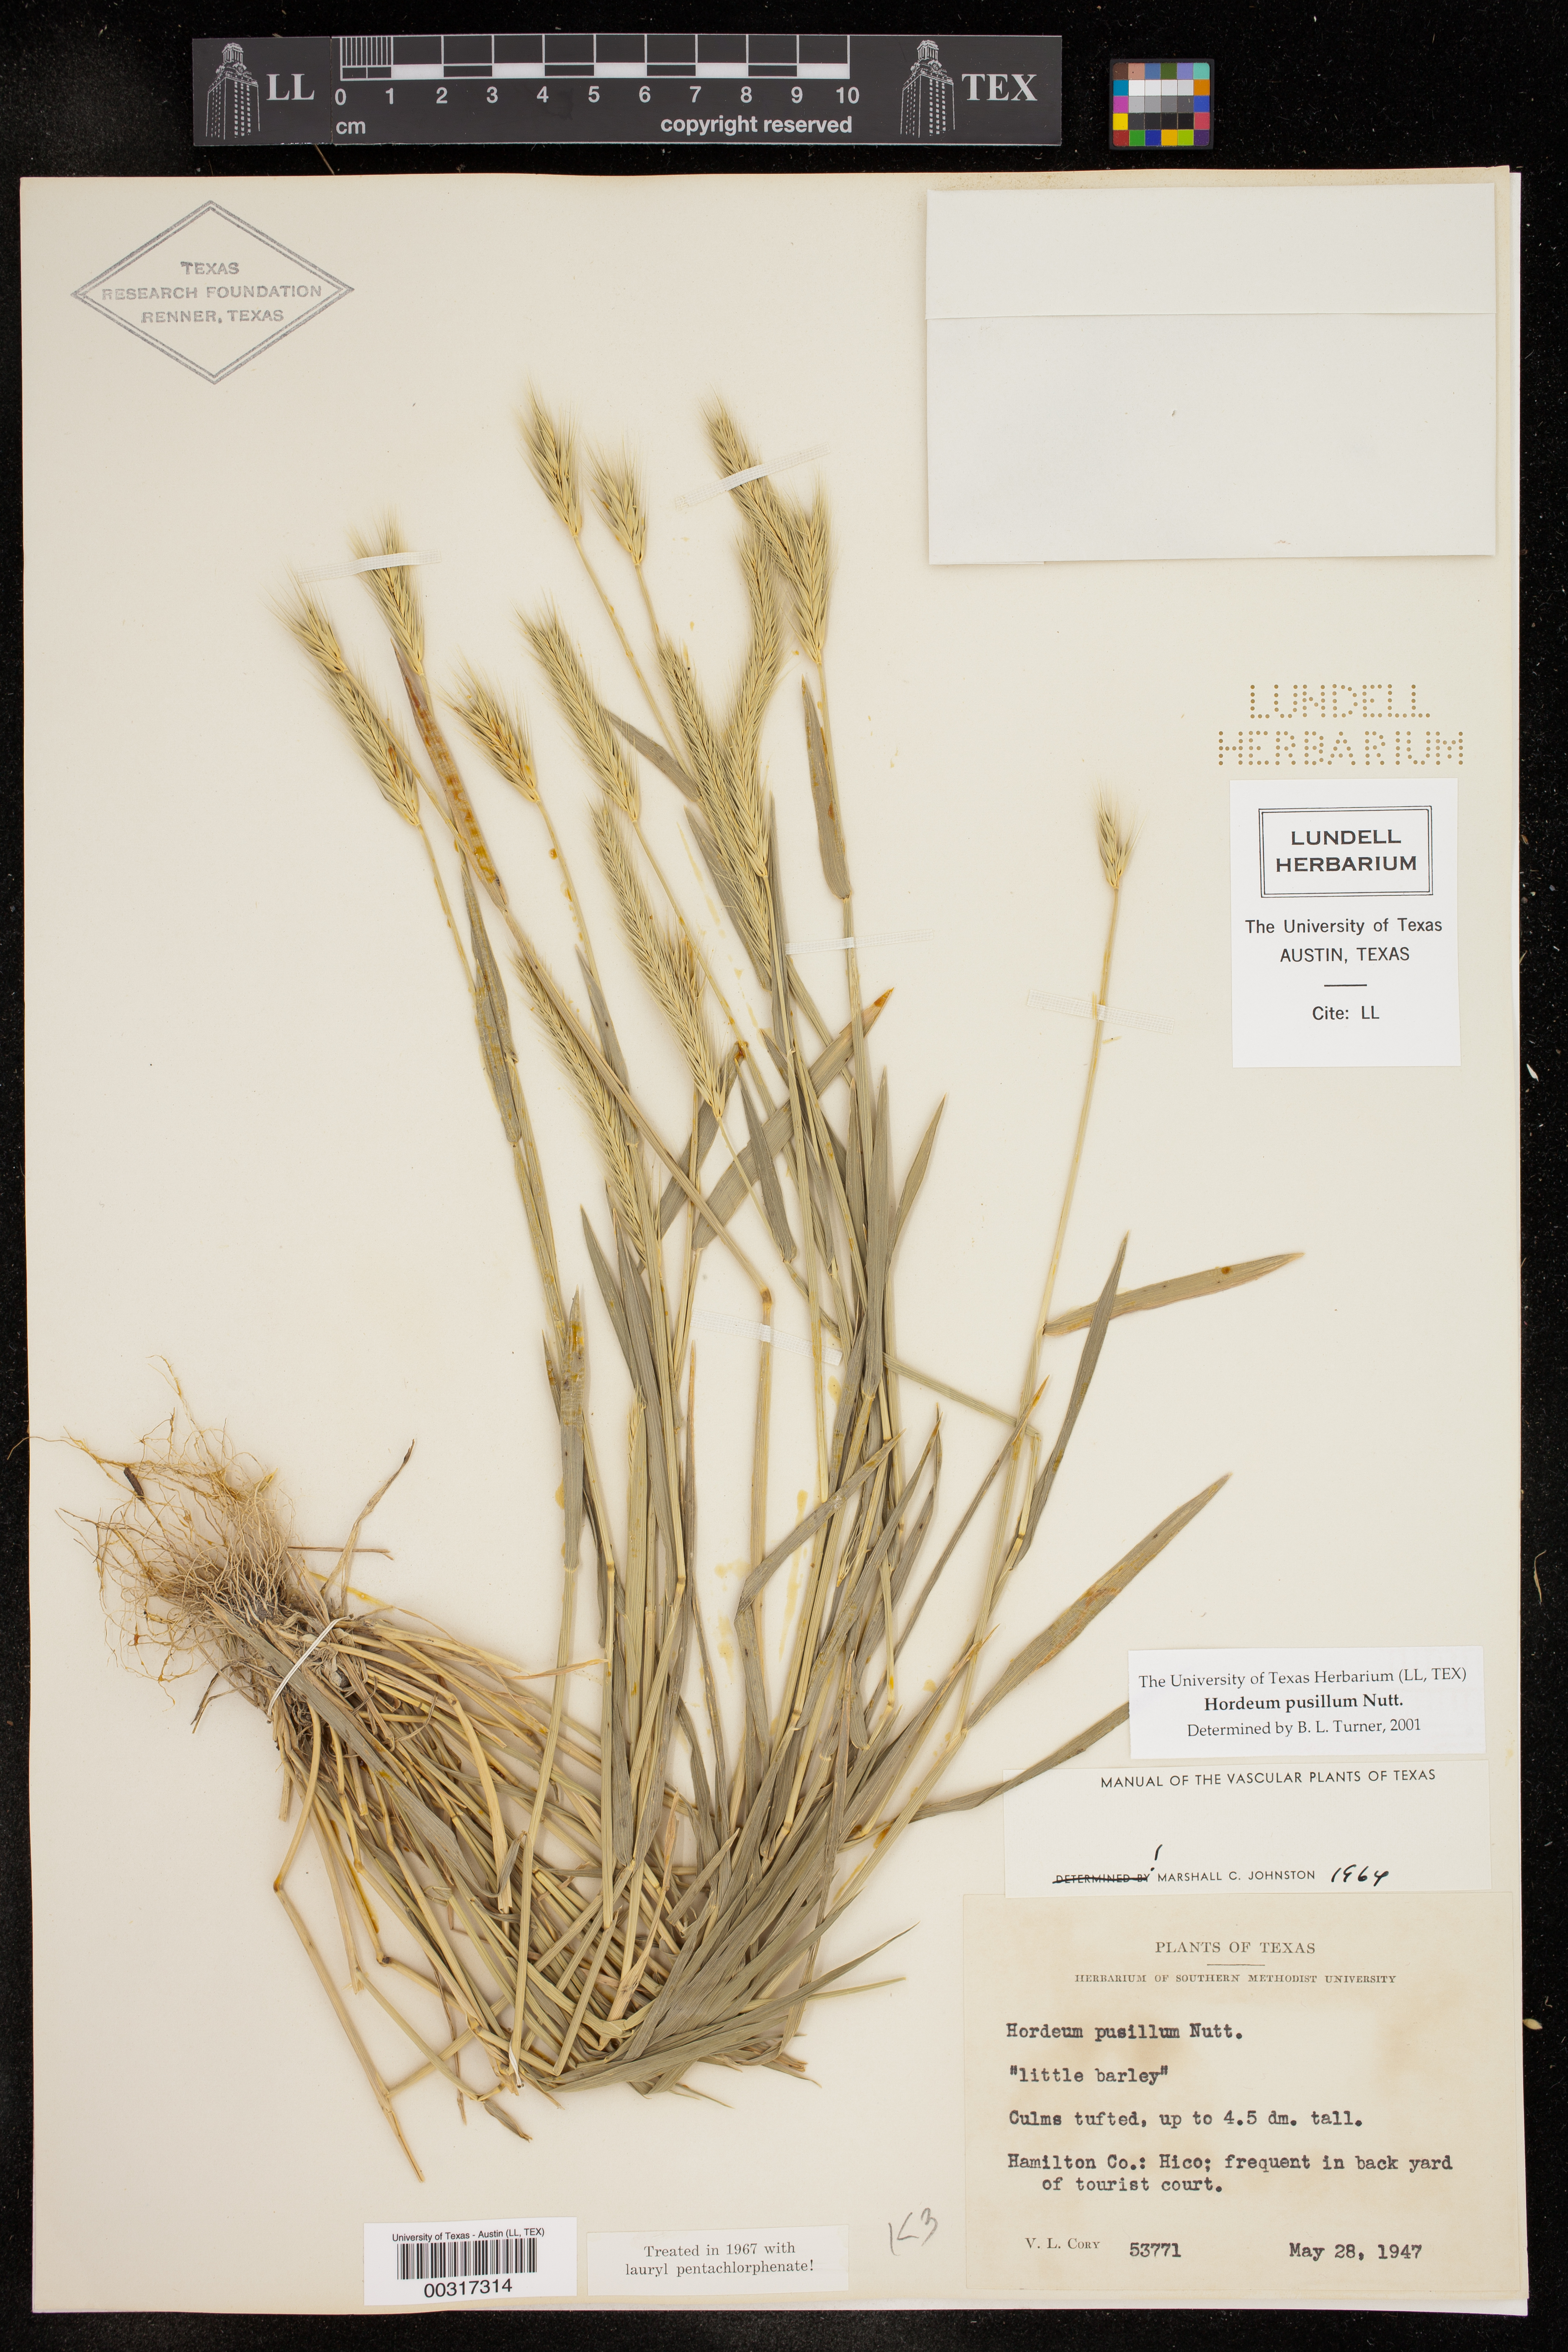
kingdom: Plantae
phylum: Tracheophyta
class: Liliopsida
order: Poales
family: Poaceae
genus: Hordeum
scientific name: Hordeum pusillum
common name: Little barley
